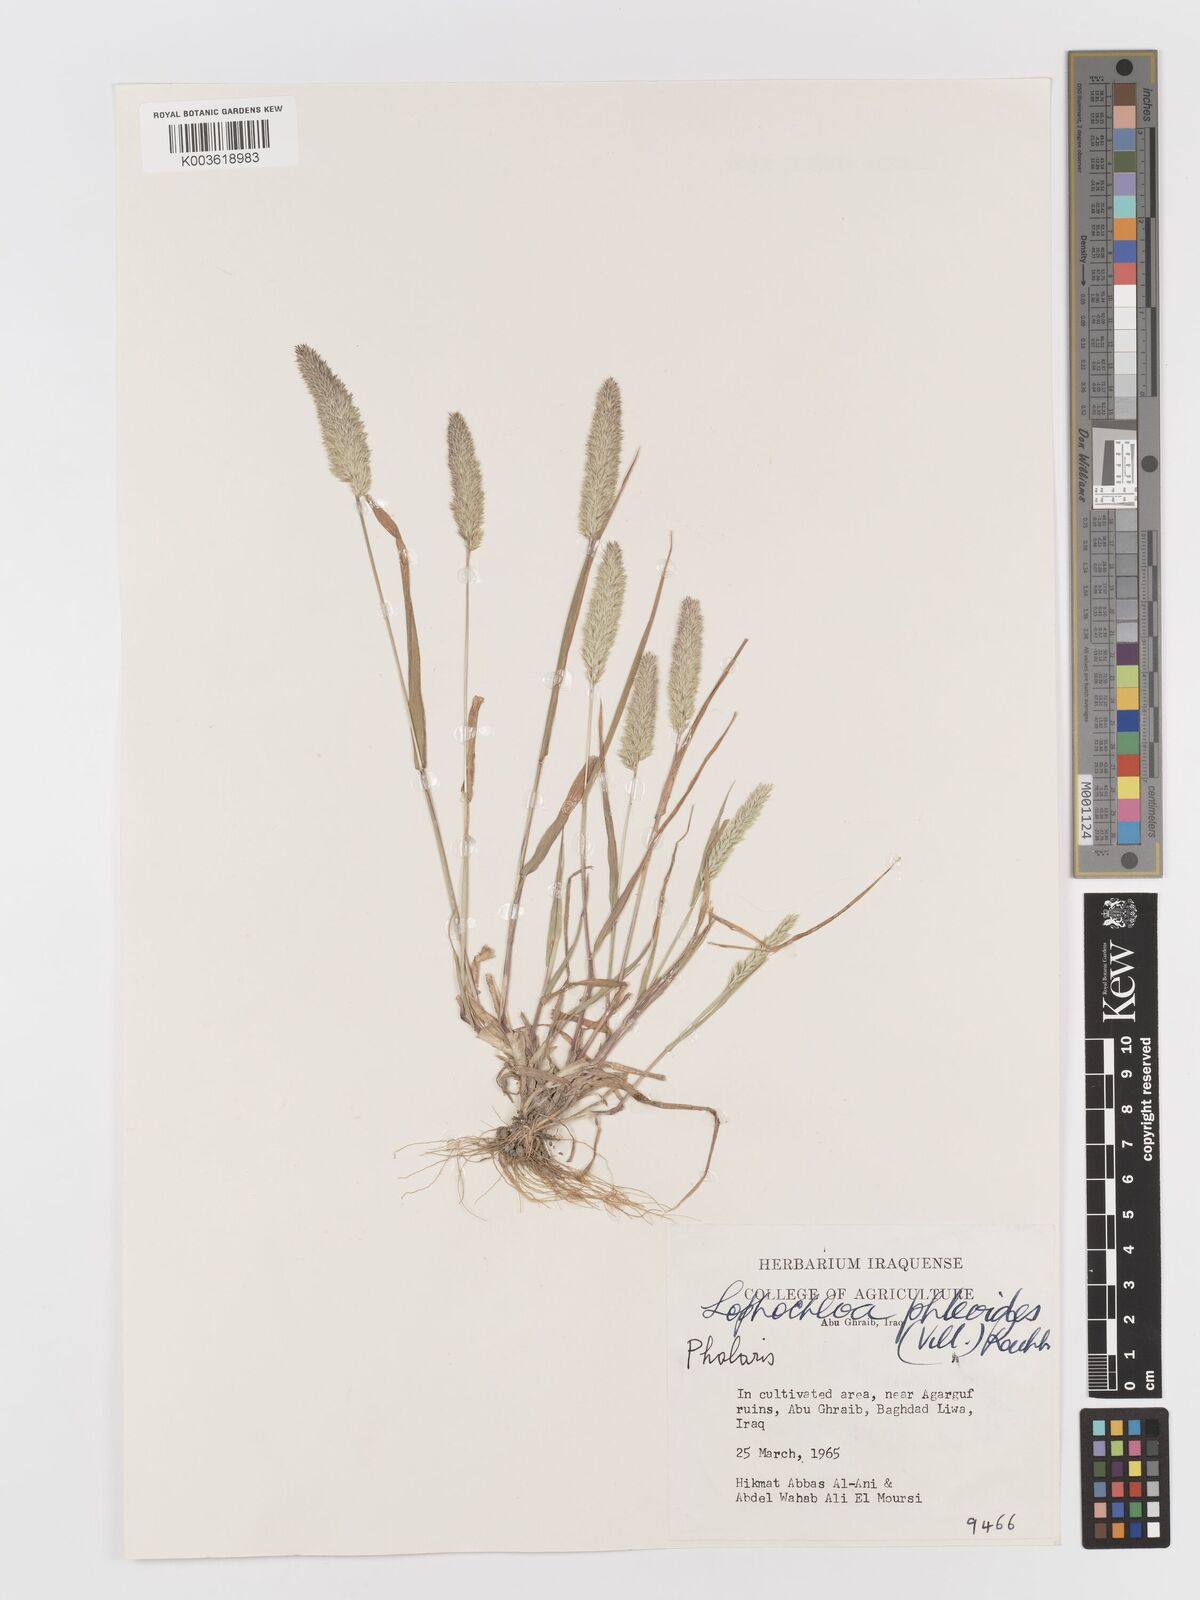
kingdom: Plantae
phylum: Tracheophyta
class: Liliopsida
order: Poales
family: Poaceae
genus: Rostraria
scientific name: Rostraria cristata
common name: Mediterranean hair-grass
